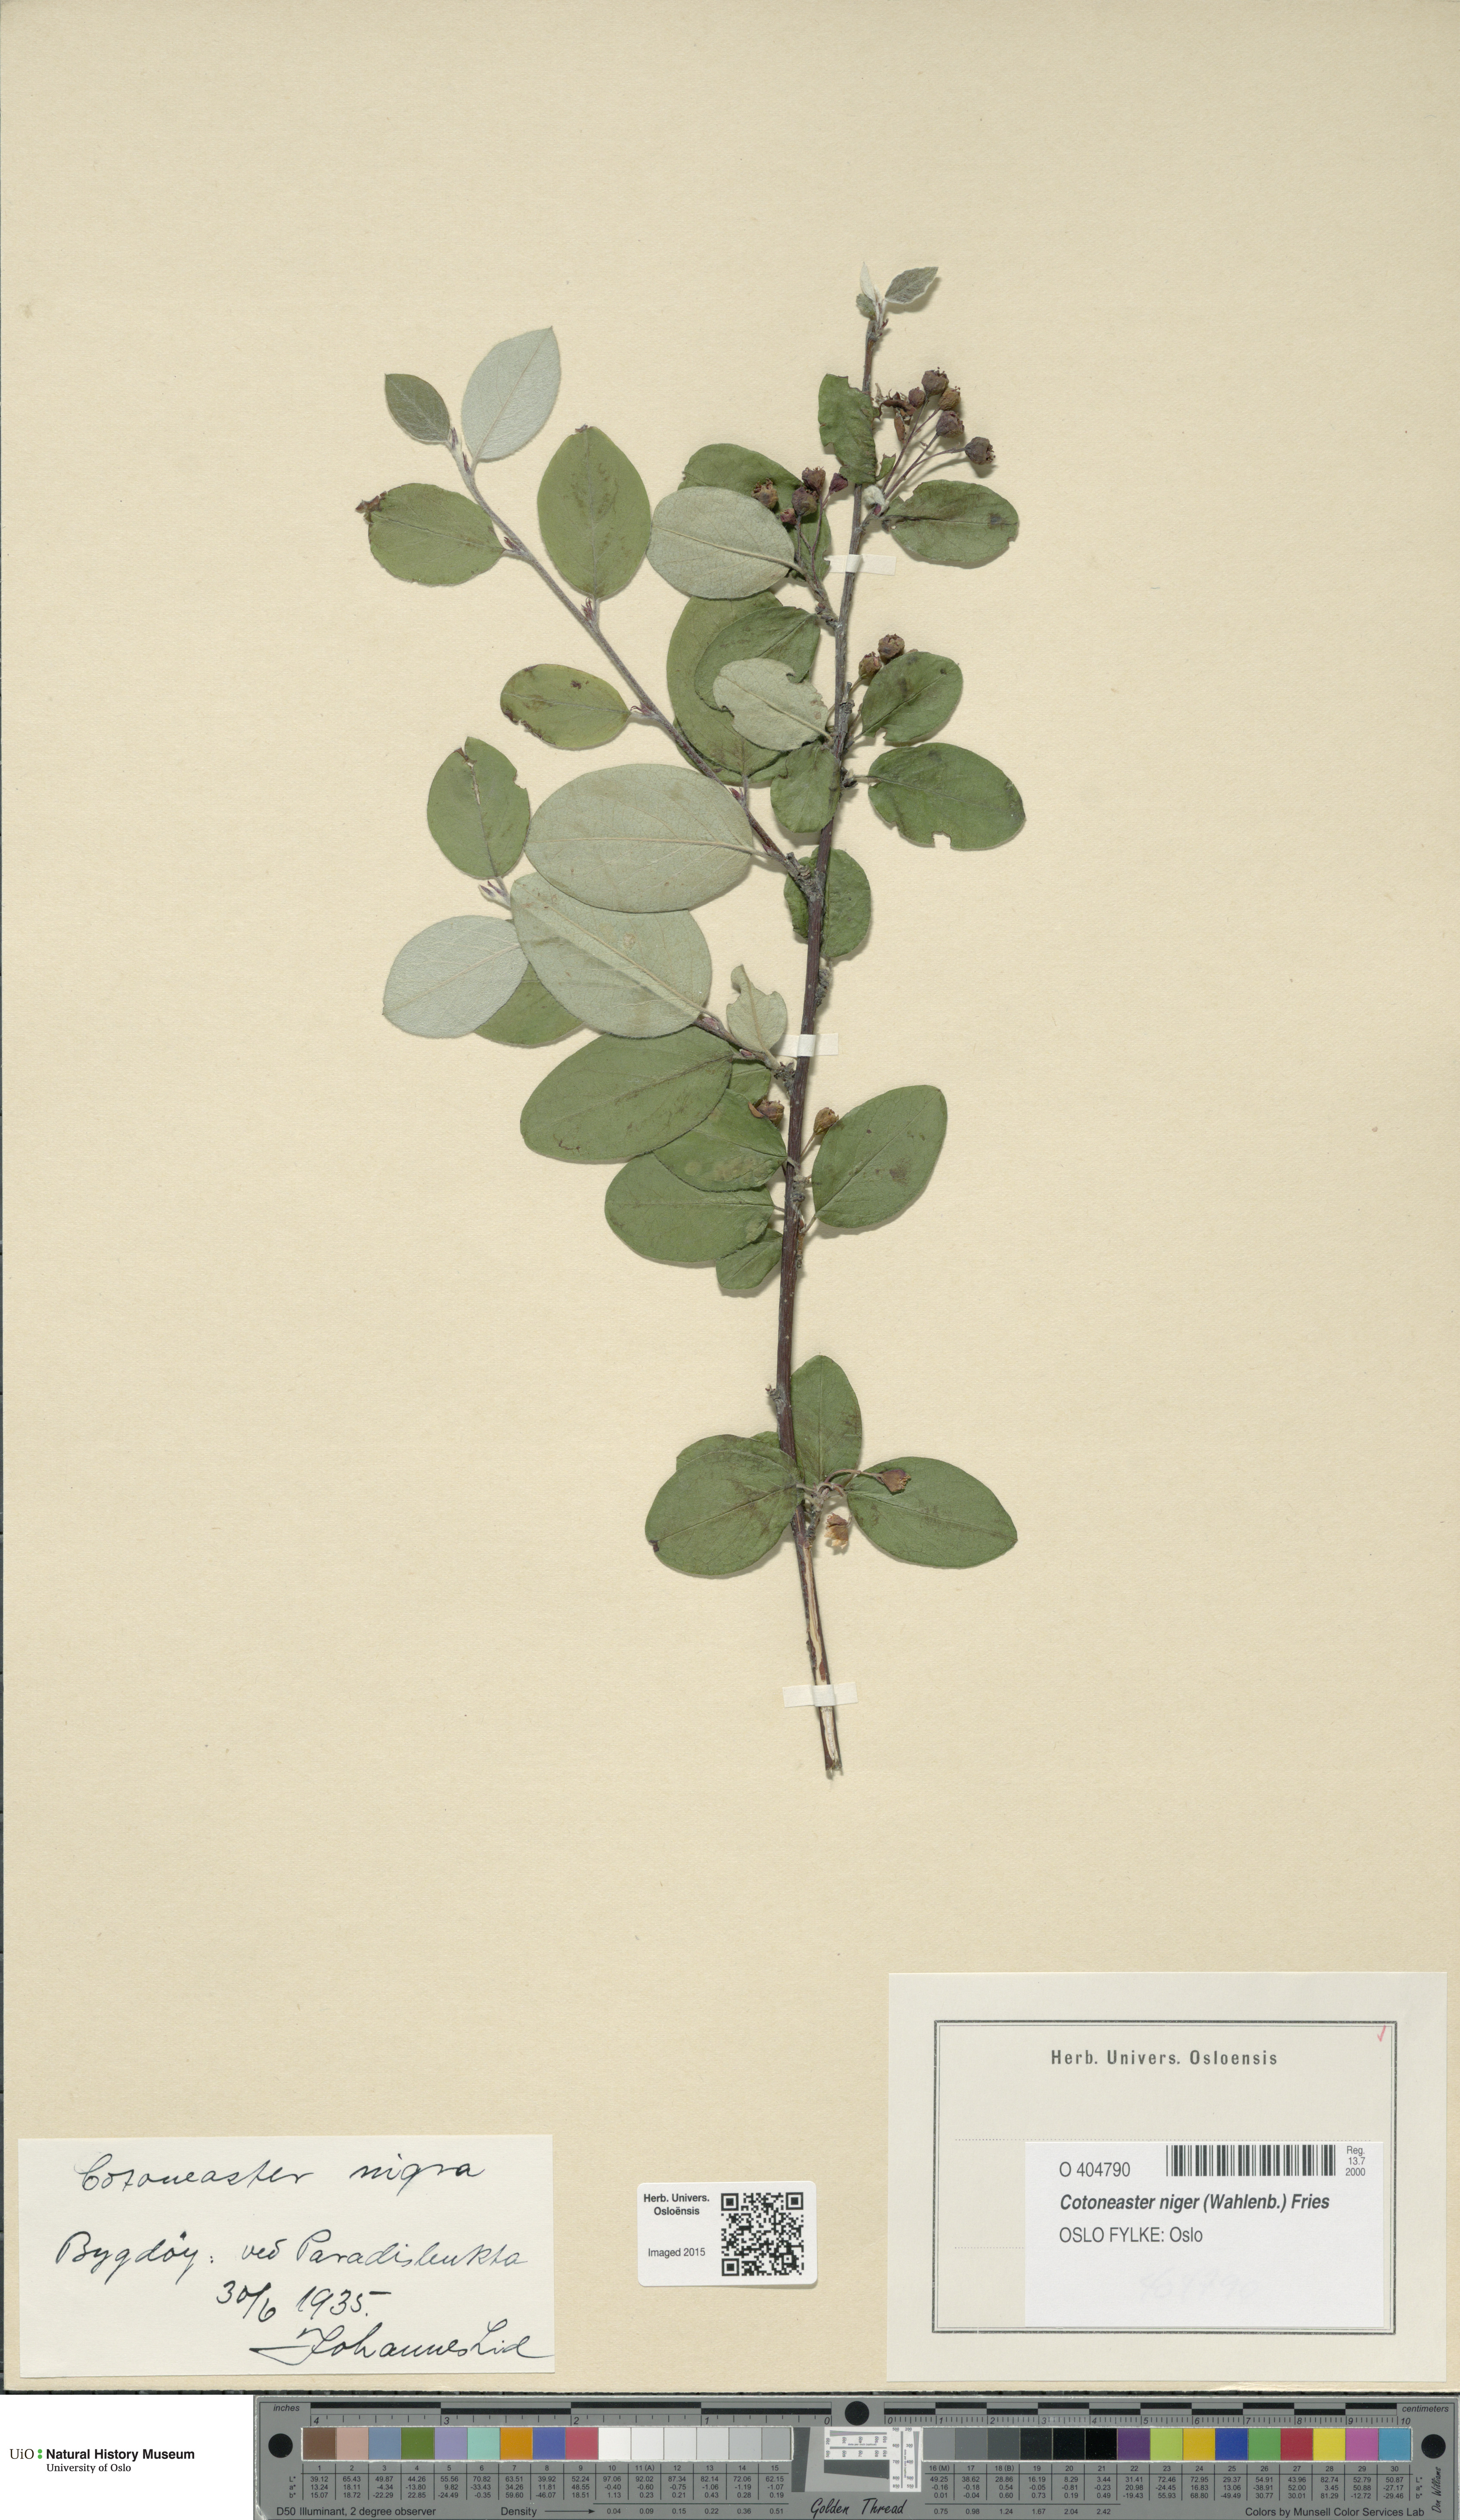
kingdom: Plantae
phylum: Tracheophyta
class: Magnoliopsida
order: Rosales
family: Rosaceae
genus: Cotoneaster
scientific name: Cotoneaster niger
